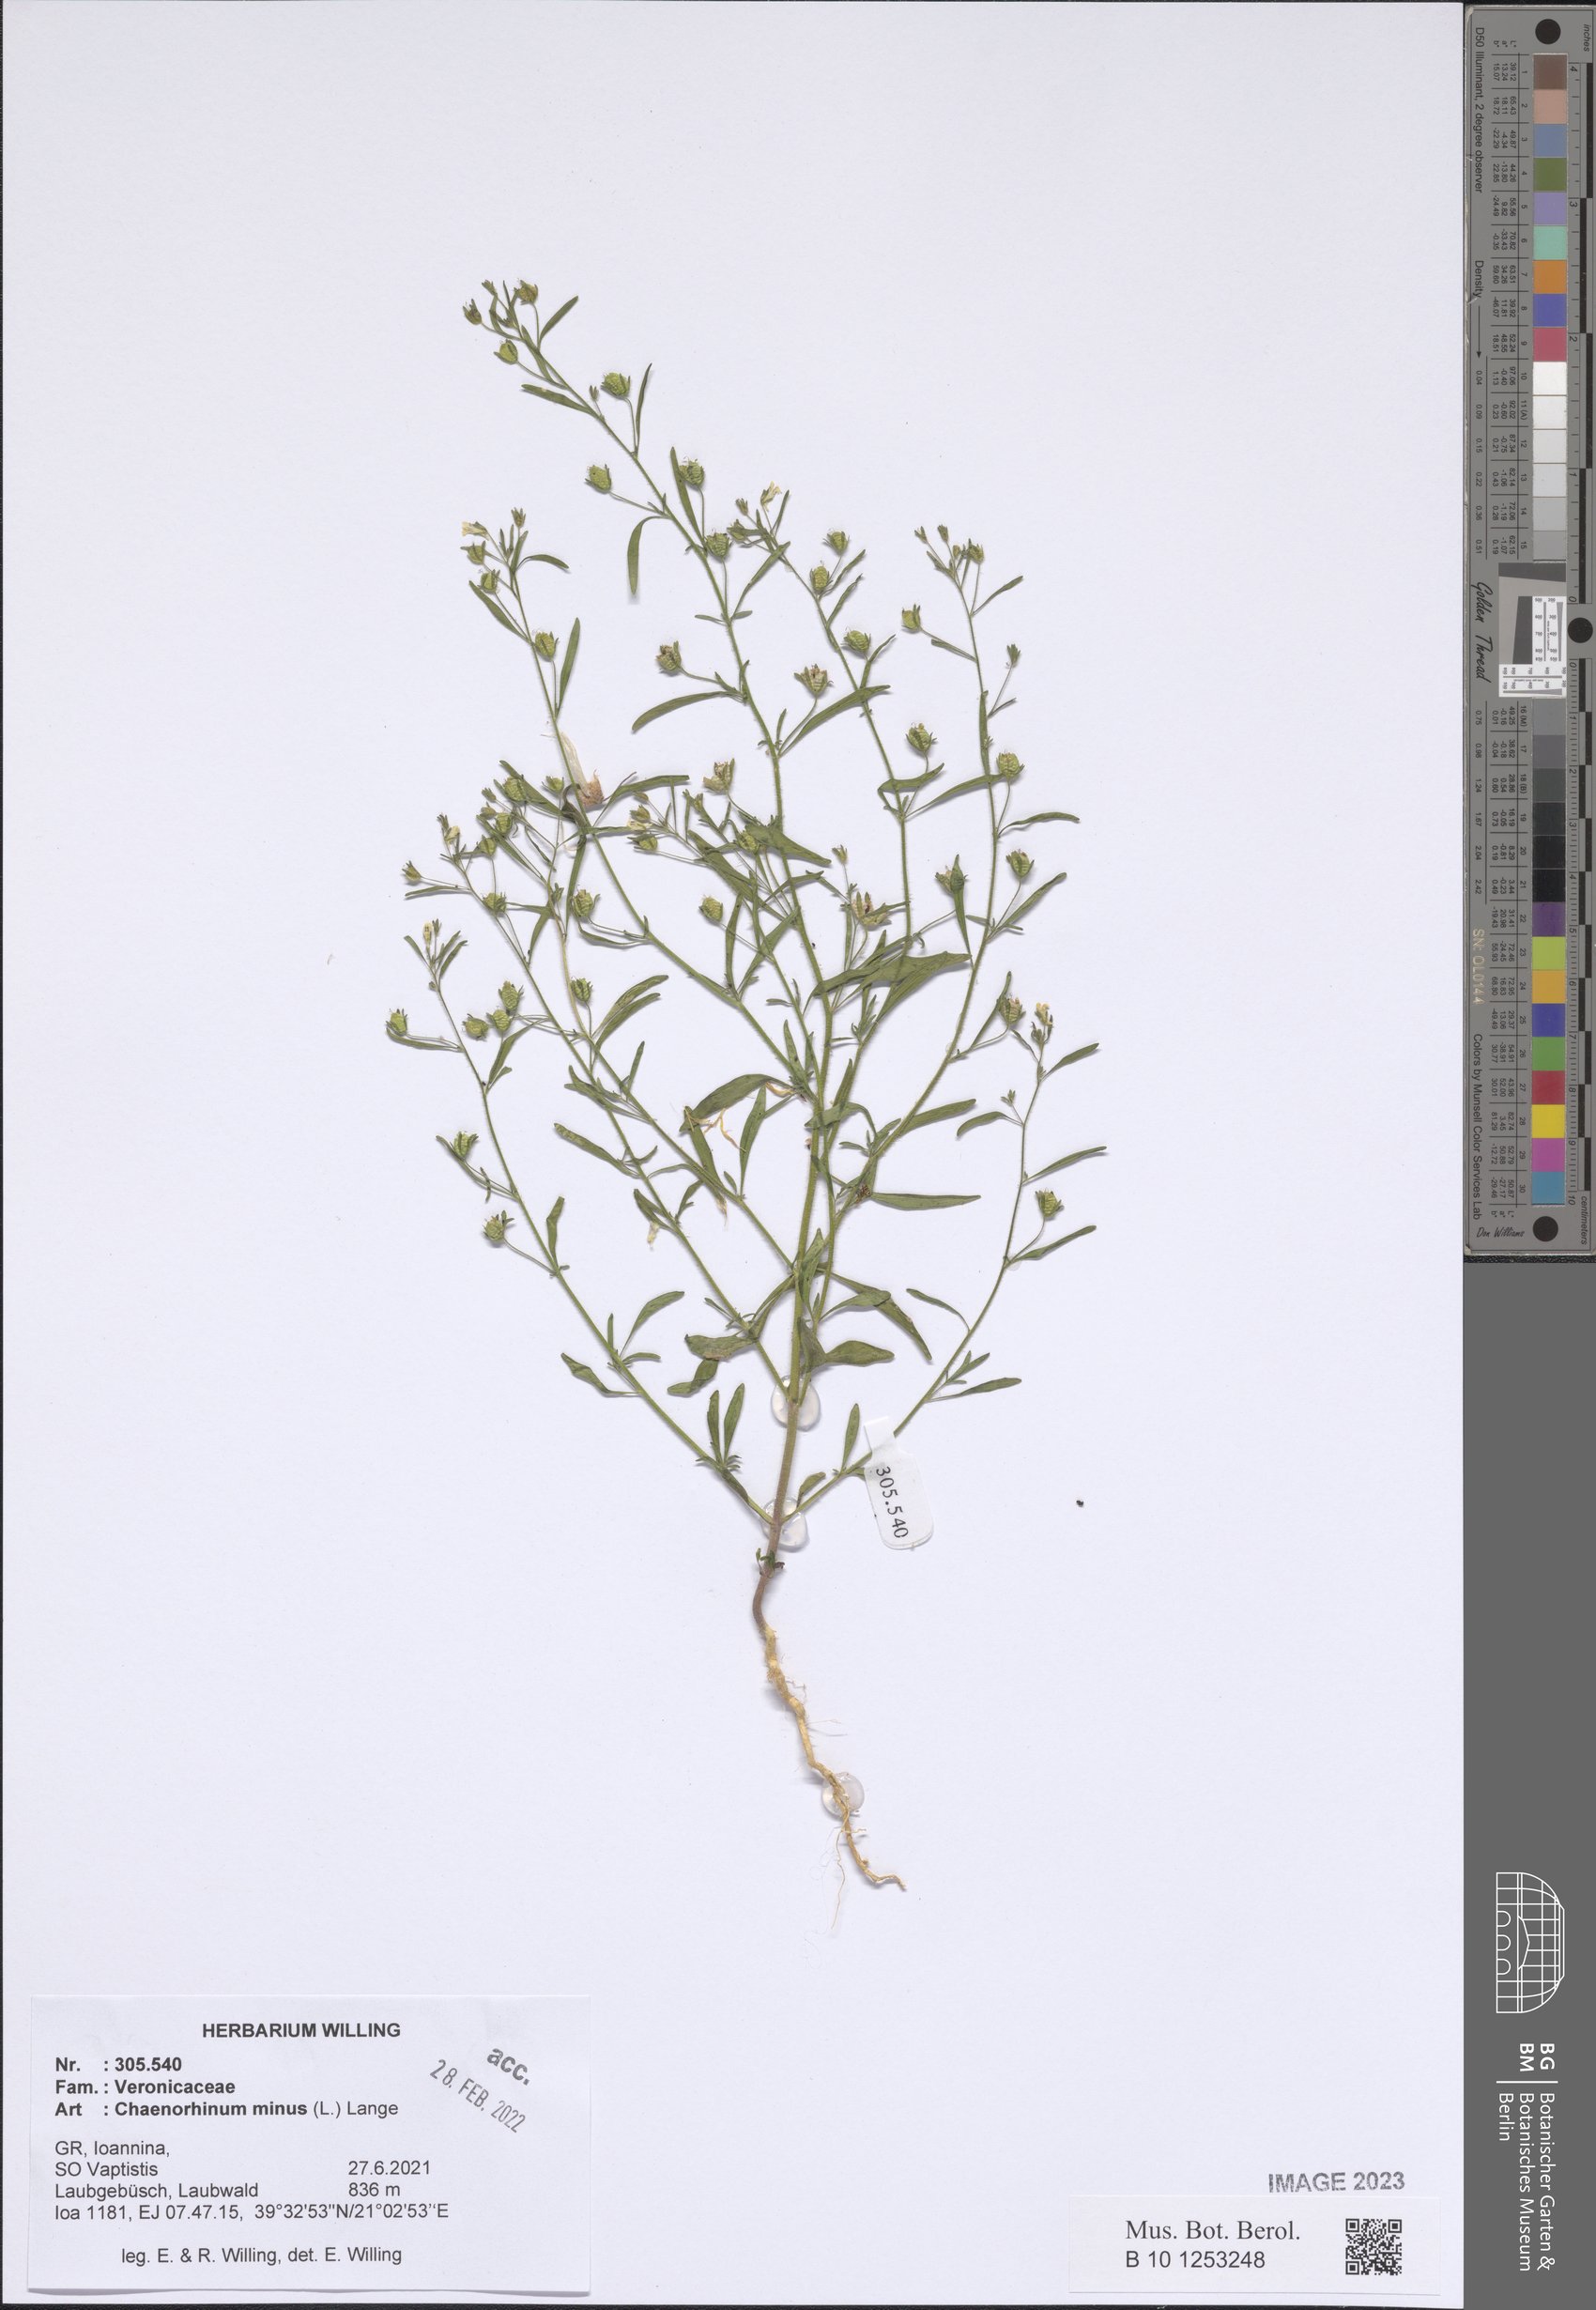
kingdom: Plantae
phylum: Tracheophyta
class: Magnoliopsida
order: Lamiales
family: Plantaginaceae
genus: Chaenorhinum
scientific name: Chaenorhinum minus
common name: Dwarf snapdragon
